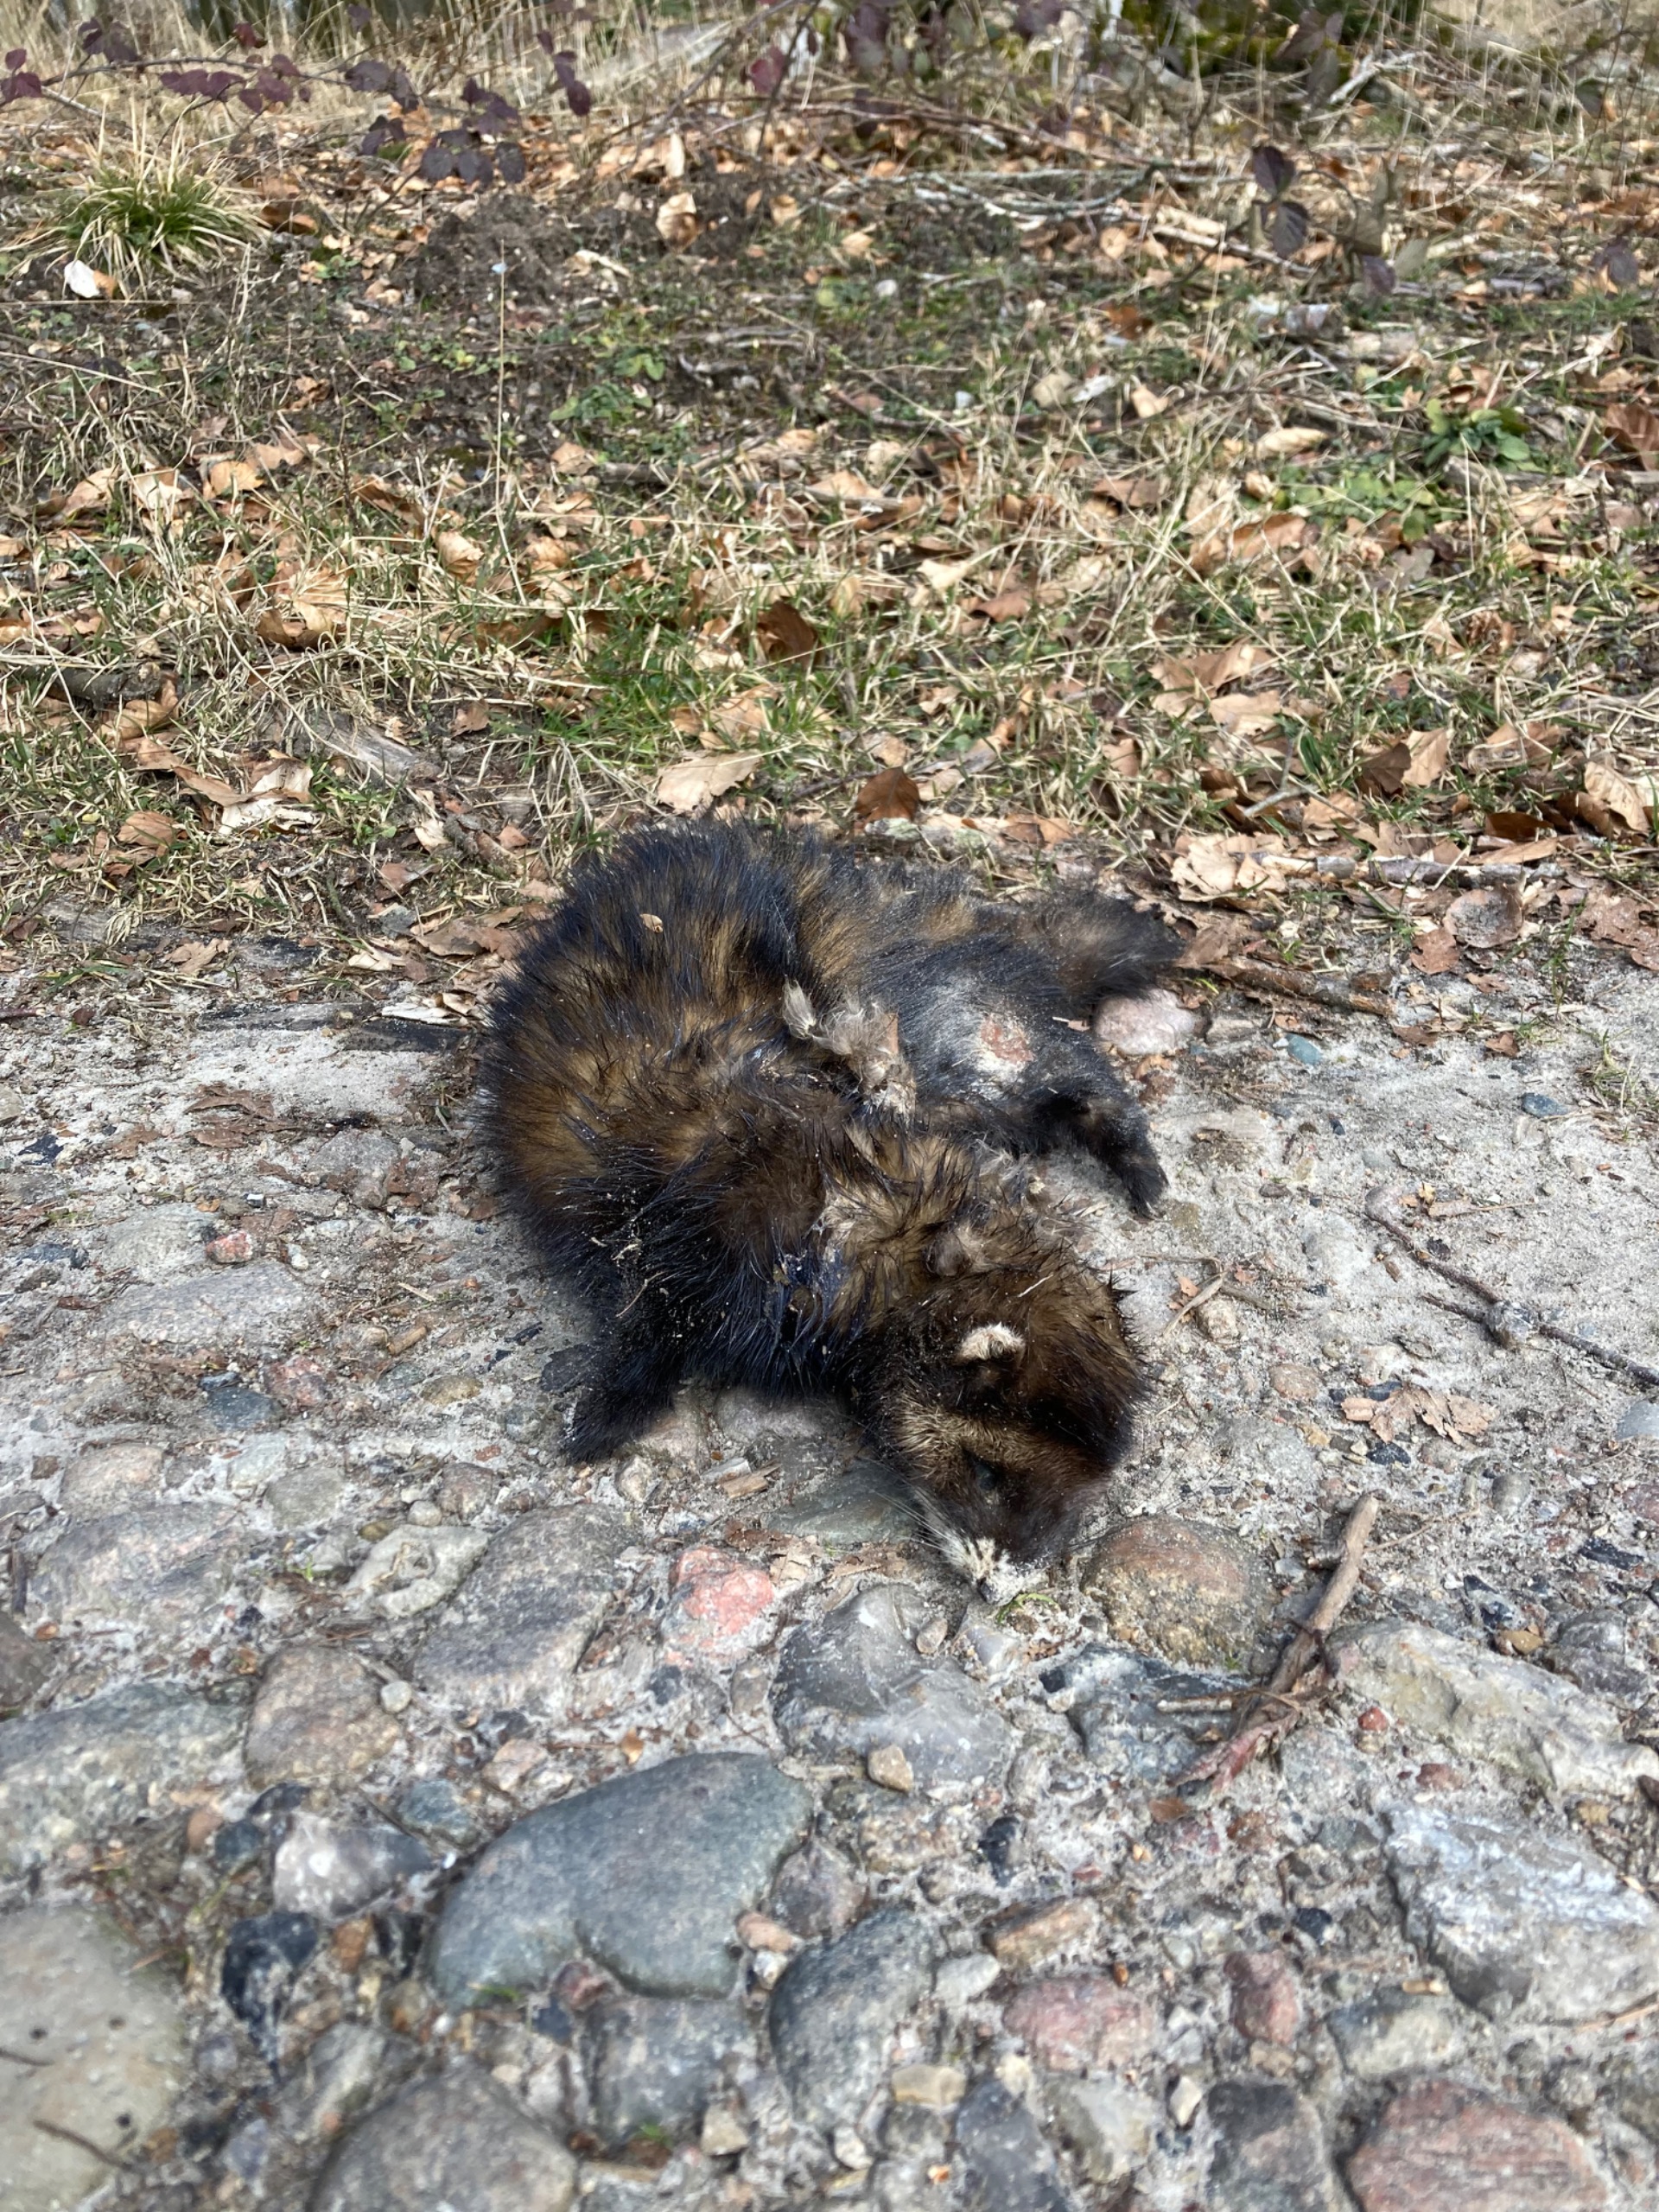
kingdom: Animalia
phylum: Chordata
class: Mammalia
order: Carnivora
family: Mustelidae
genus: Mustela
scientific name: Mustela putorius
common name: Ilder
